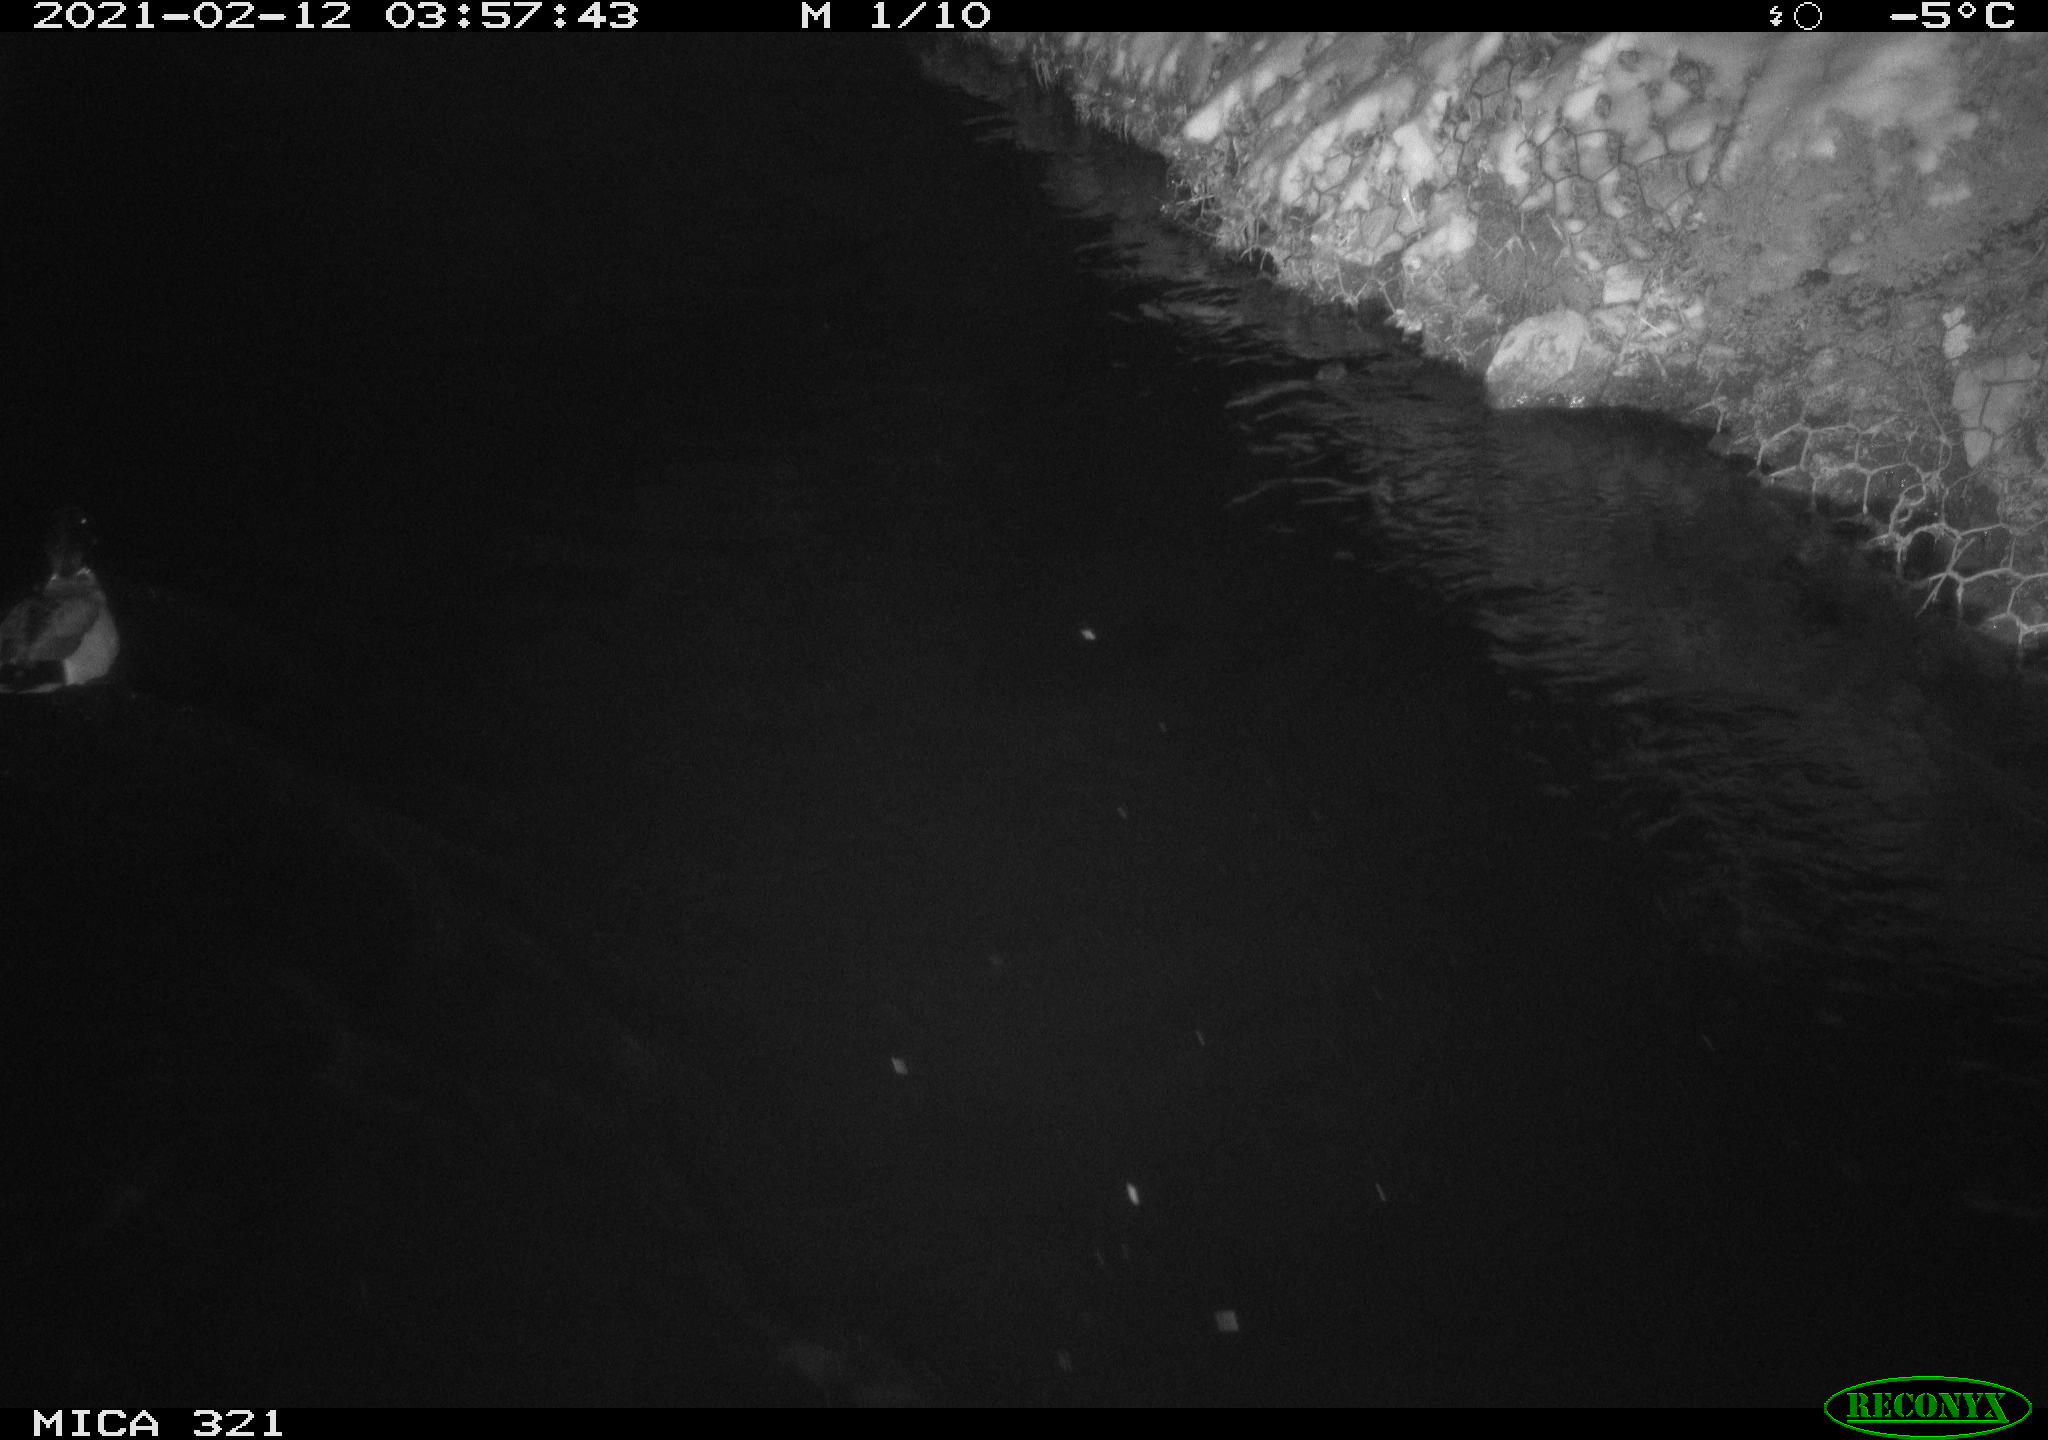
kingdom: Animalia
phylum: Chordata
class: Aves
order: Anseriformes
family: Anatidae
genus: Anas
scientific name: Anas platyrhynchos
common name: Mallard
